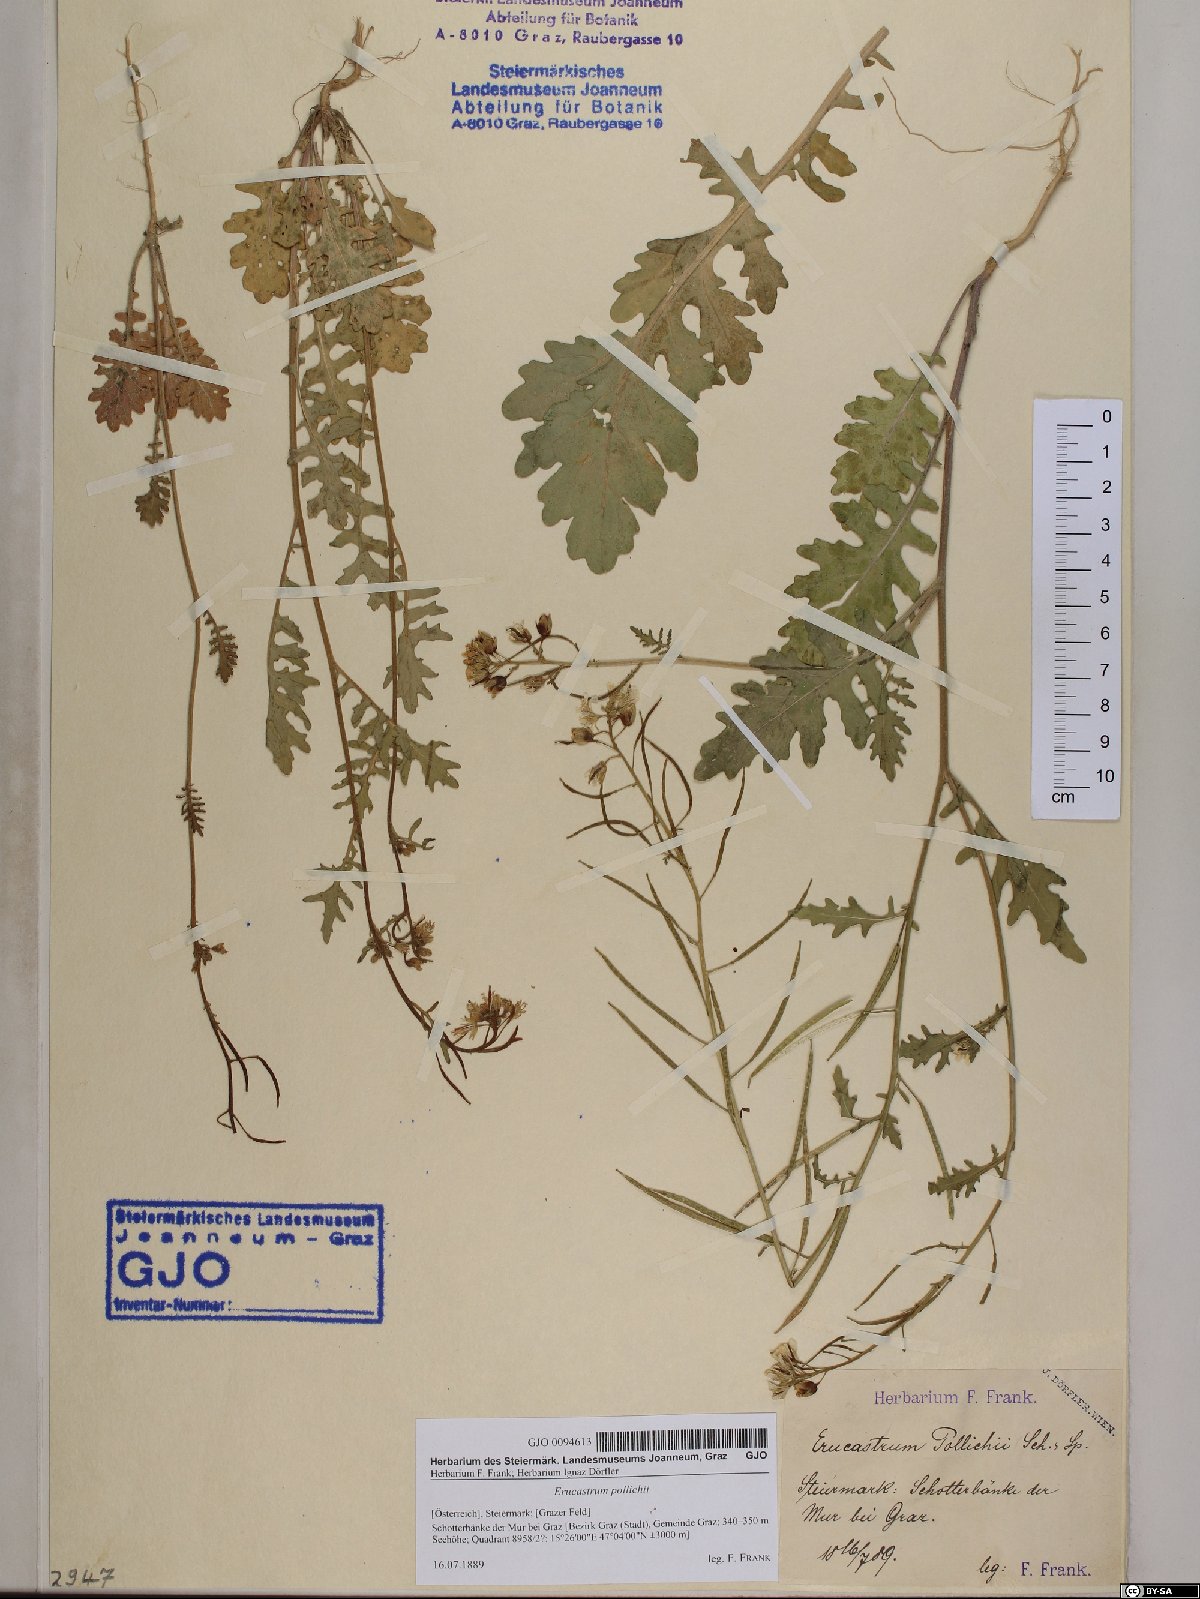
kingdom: Plantae
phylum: Tracheophyta
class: Magnoliopsida
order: Brassicales
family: Brassicaceae
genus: Erucastrum
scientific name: Erucastrum gallicum
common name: Hairy rocket
